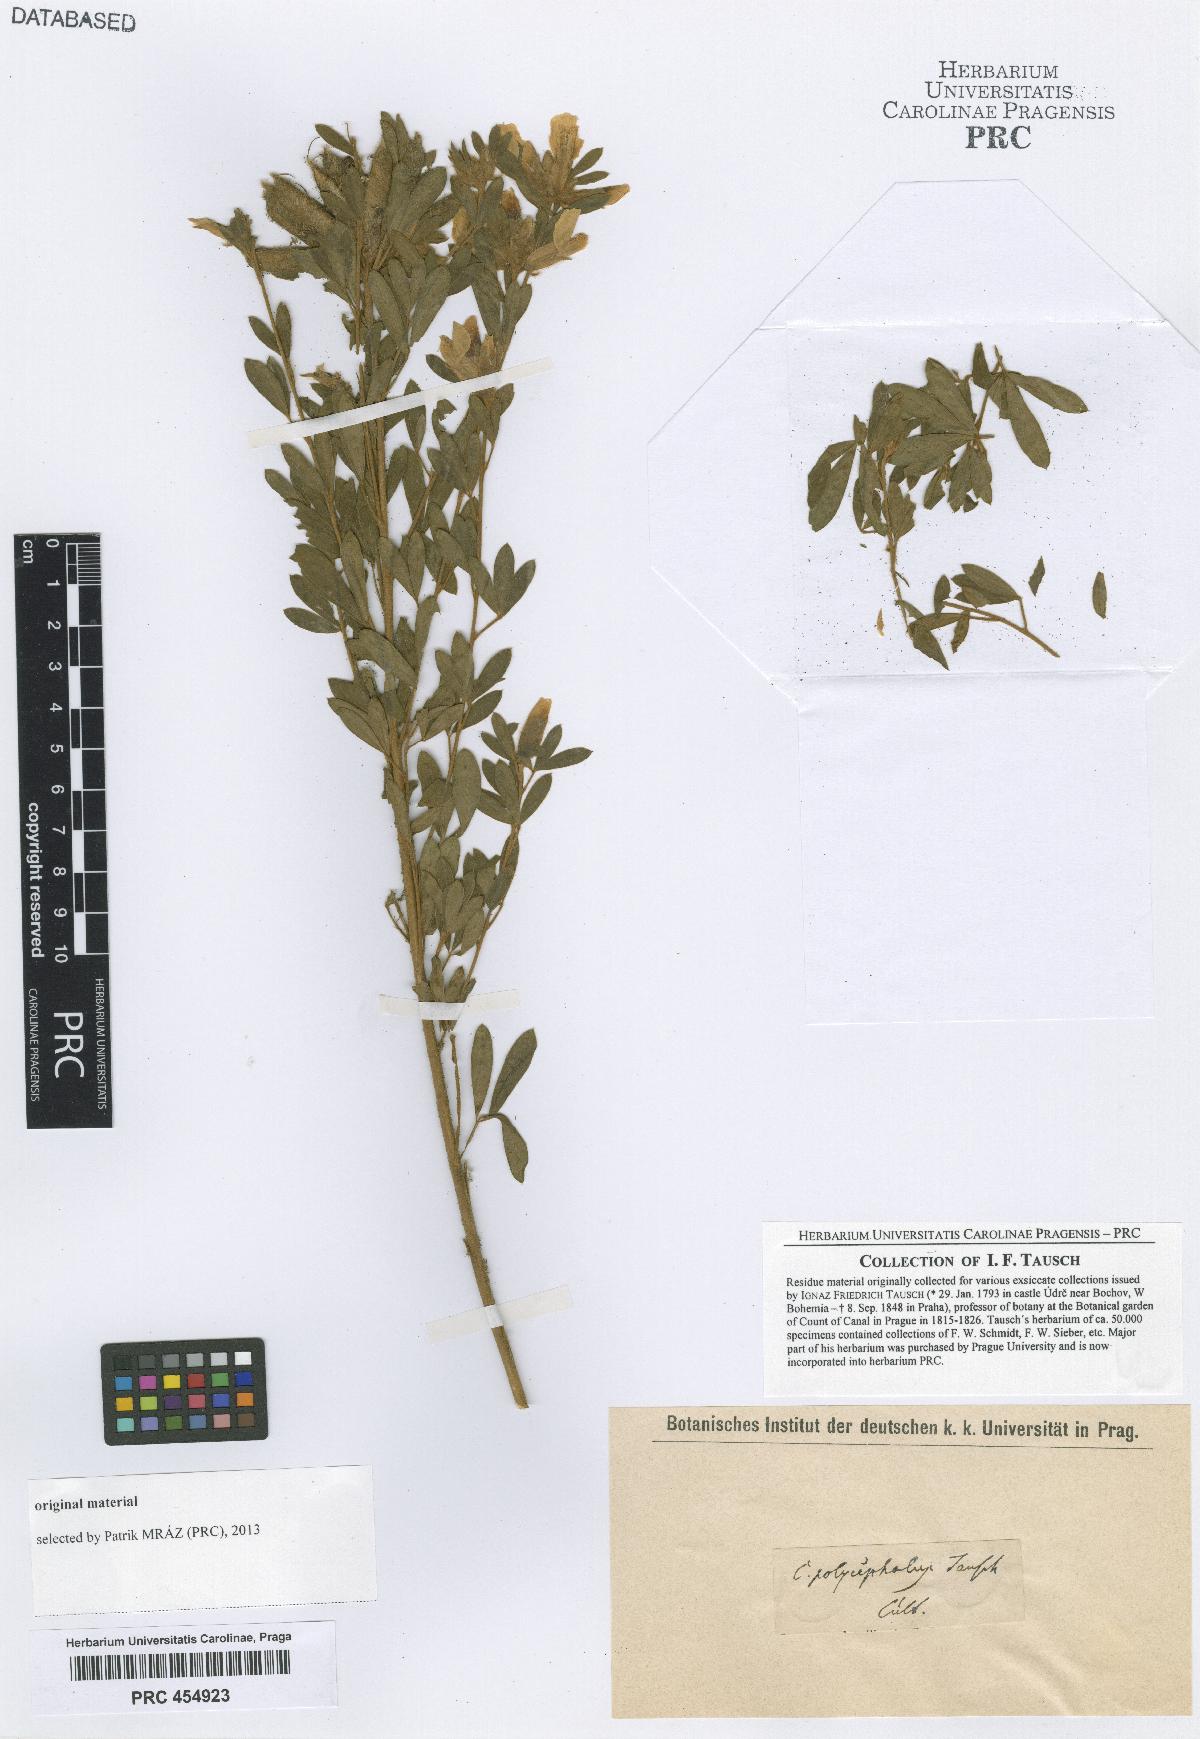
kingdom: Plantae
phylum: Tracheophyta
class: Magnoliopsida
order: Fabales
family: Fabaceae
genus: Chamaecytisus
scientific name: Chamaecytisus albus
